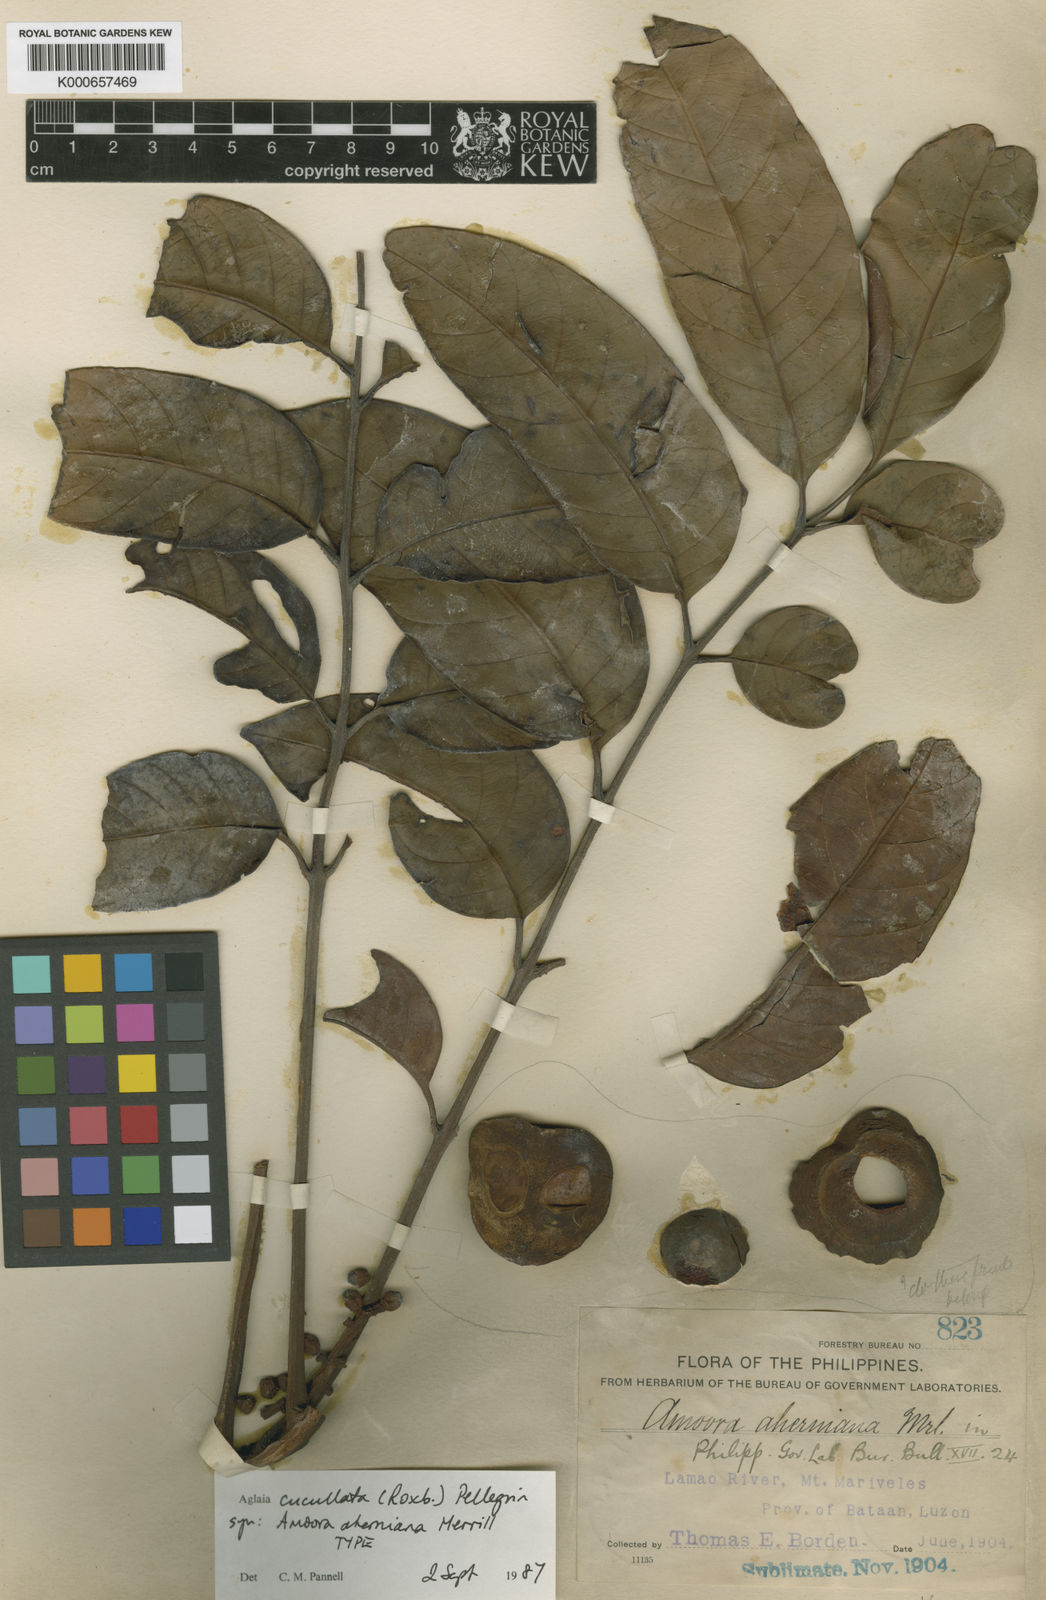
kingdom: Plantae
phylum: Tracheophyta
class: Magnoliopsida
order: Sapindales
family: Meliaceae
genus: Aglaia
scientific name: Aglaia cucullata
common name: Pacific maple
